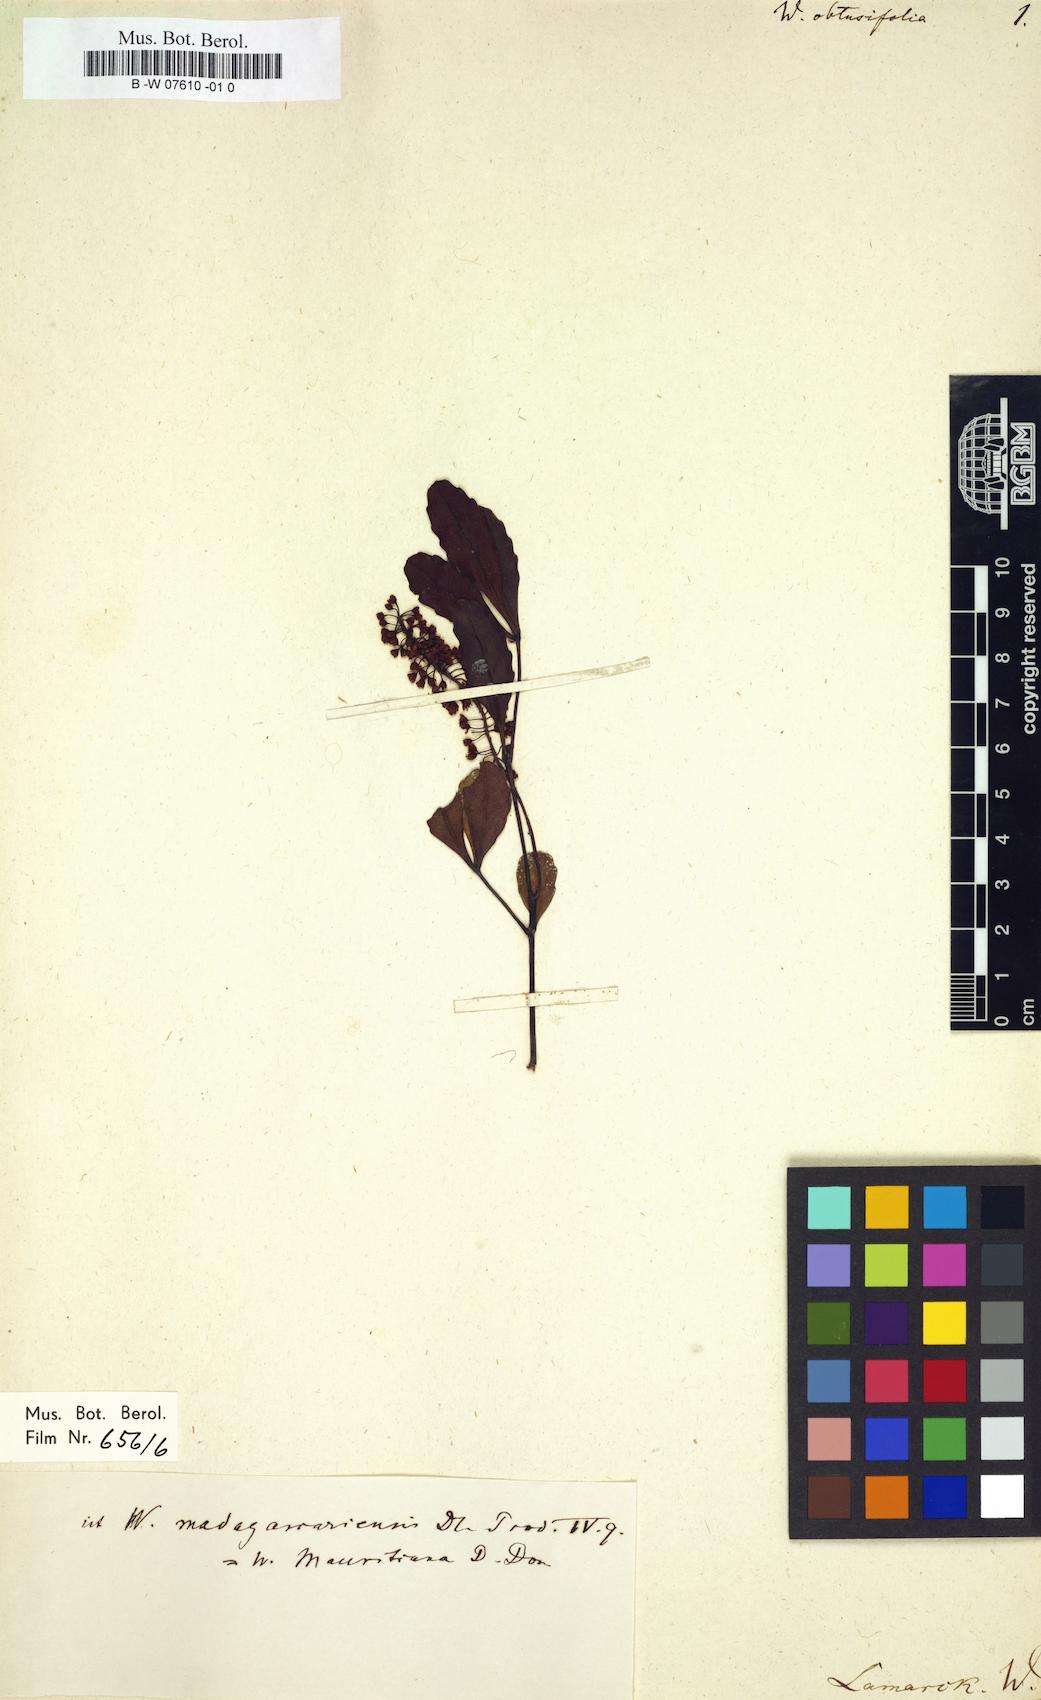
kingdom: Plantae
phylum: Tracheophyta
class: Magnoliopsida
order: Oxalidales
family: Cunoniaceae
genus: Weinmannia
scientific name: Weinmannia obtusifolia
